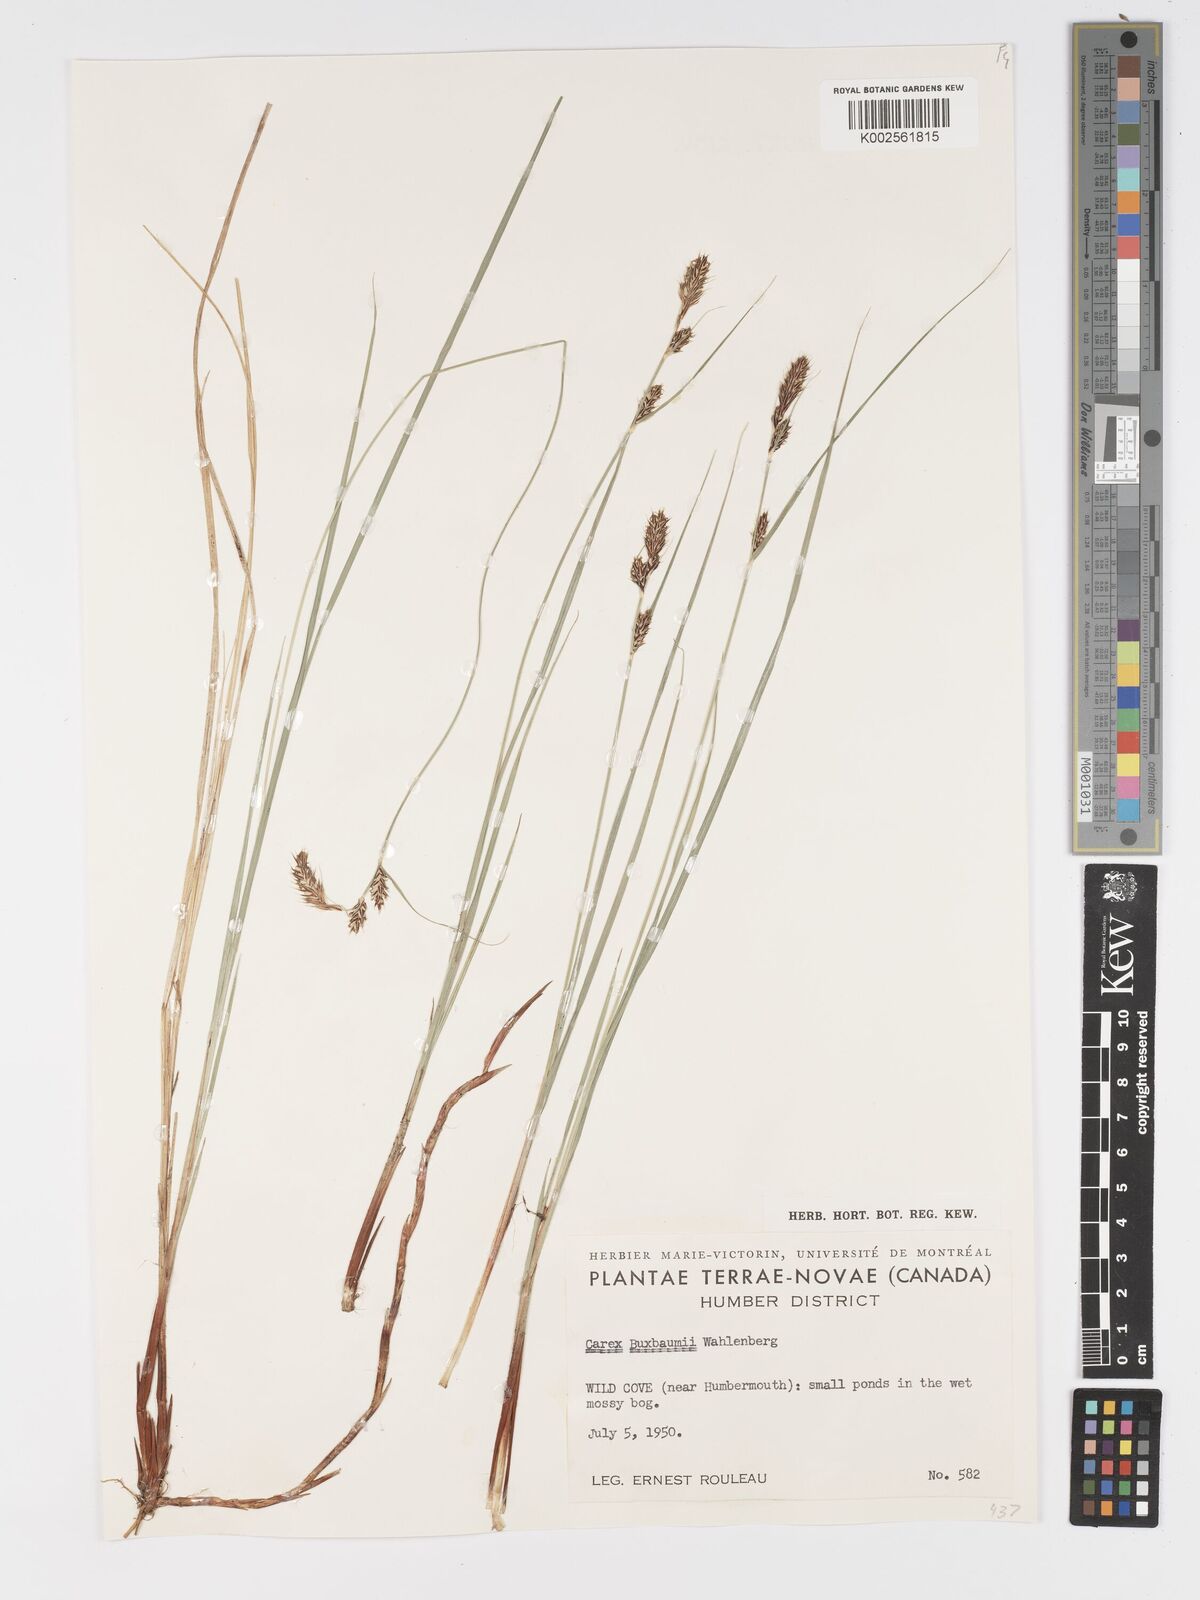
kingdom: Plantae
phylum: Tracheophyta
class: Liliopsida
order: Poales
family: Cyperaceae
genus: Carex
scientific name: Carex buxbaumii
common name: Club sedge
